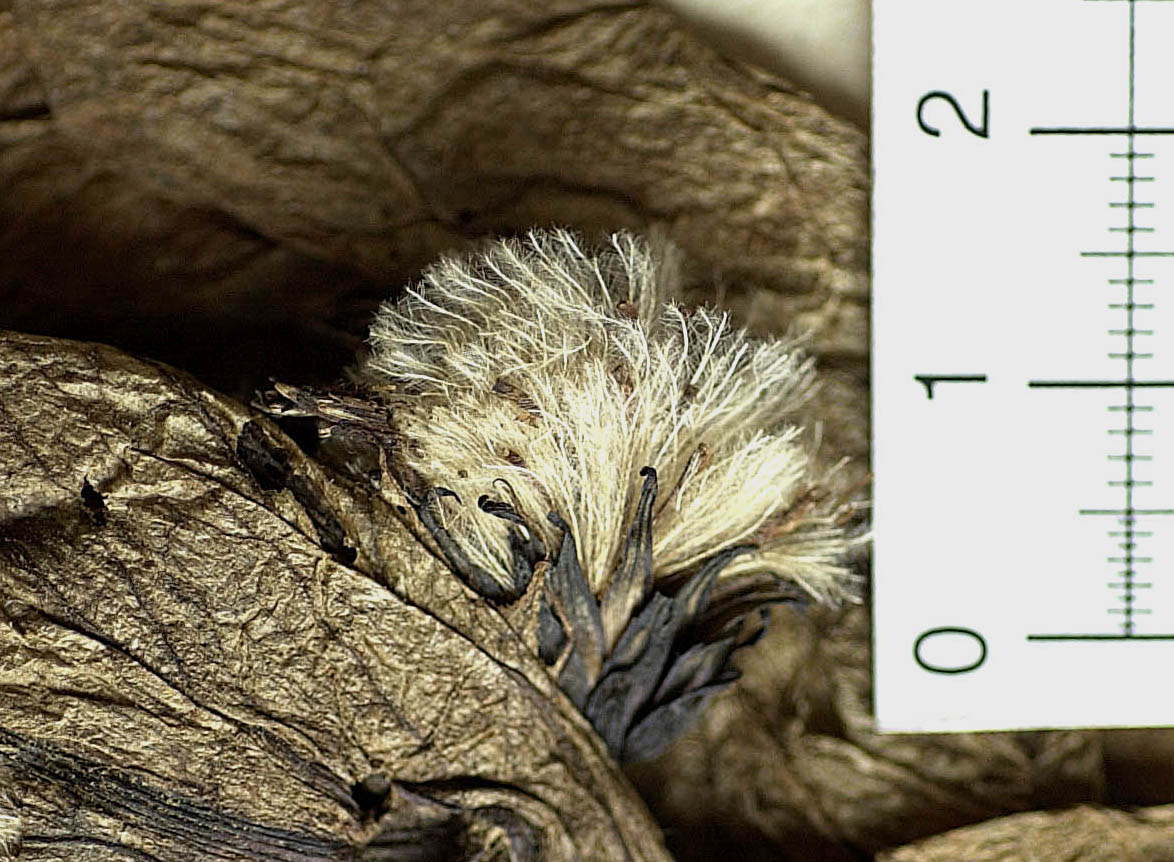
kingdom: Plantae
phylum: Tracheophyta
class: Magnoliopsida
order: Asterales
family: Asteraceae
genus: Saussurea
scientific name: Saussurea obvallata
